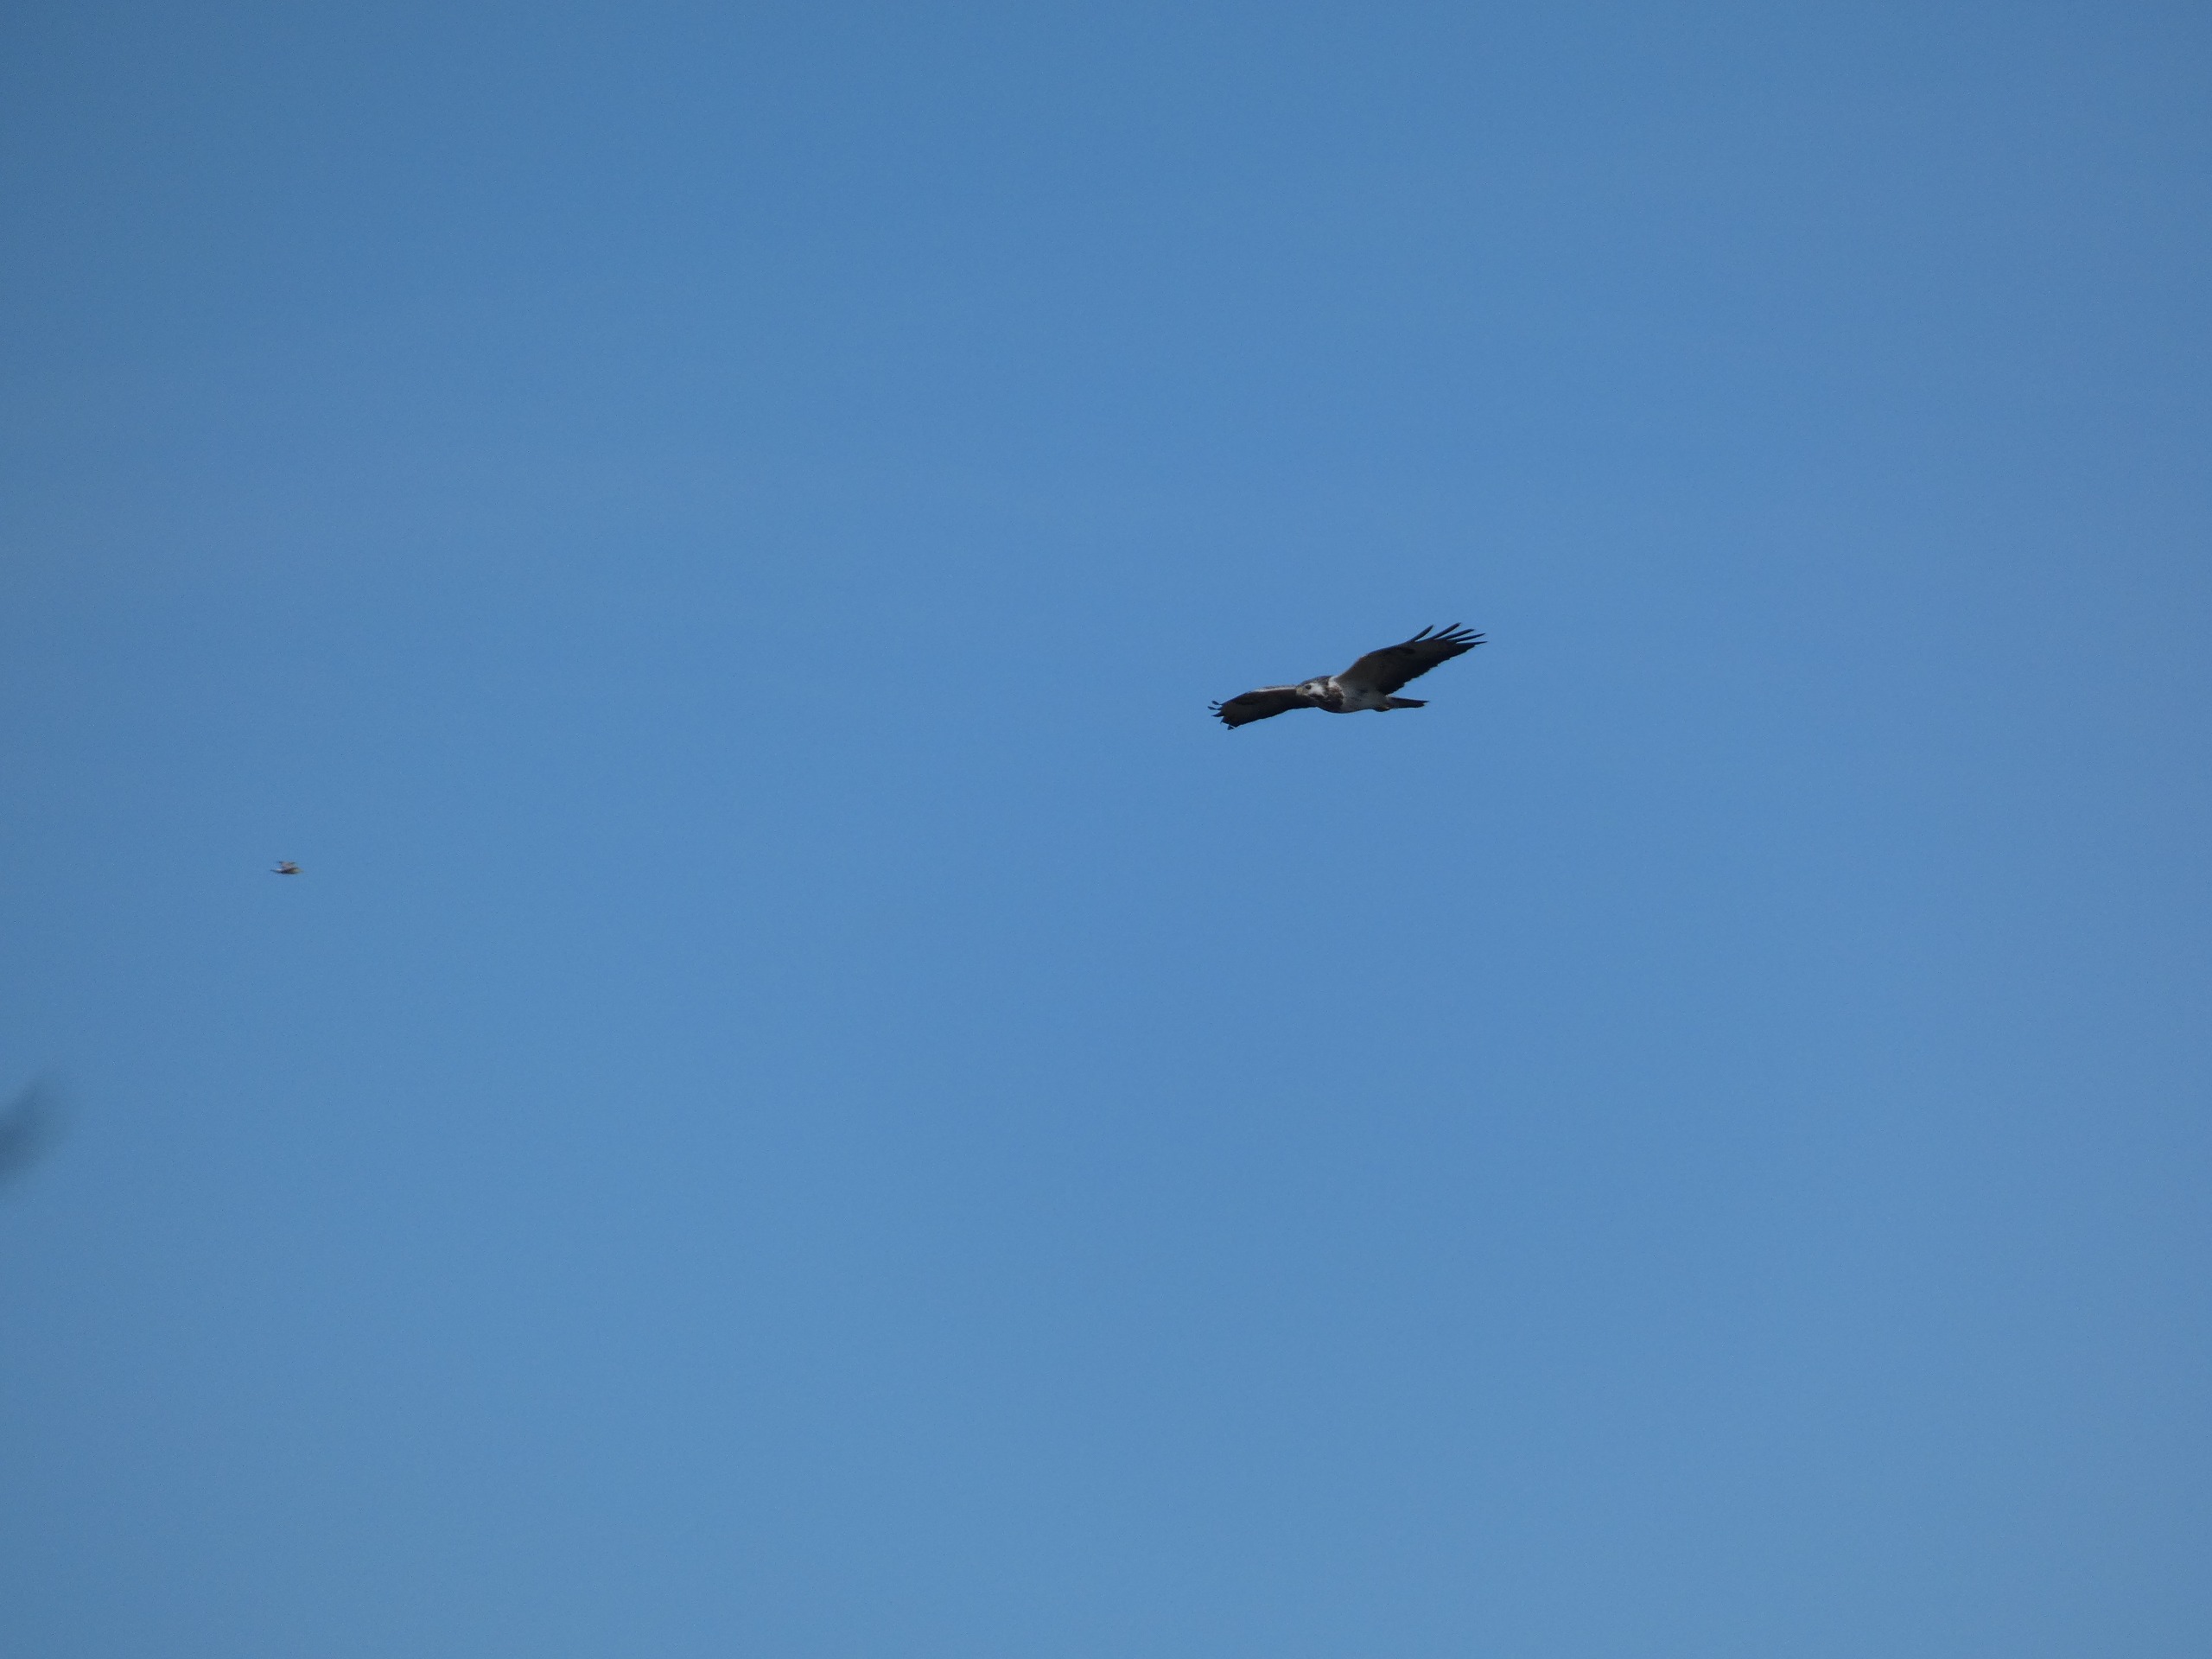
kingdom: Animalia
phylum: Chordata
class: Aves
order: Accipitriformes
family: Accipitridae
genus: Buteo
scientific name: Buteo buteo
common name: Musvåge
